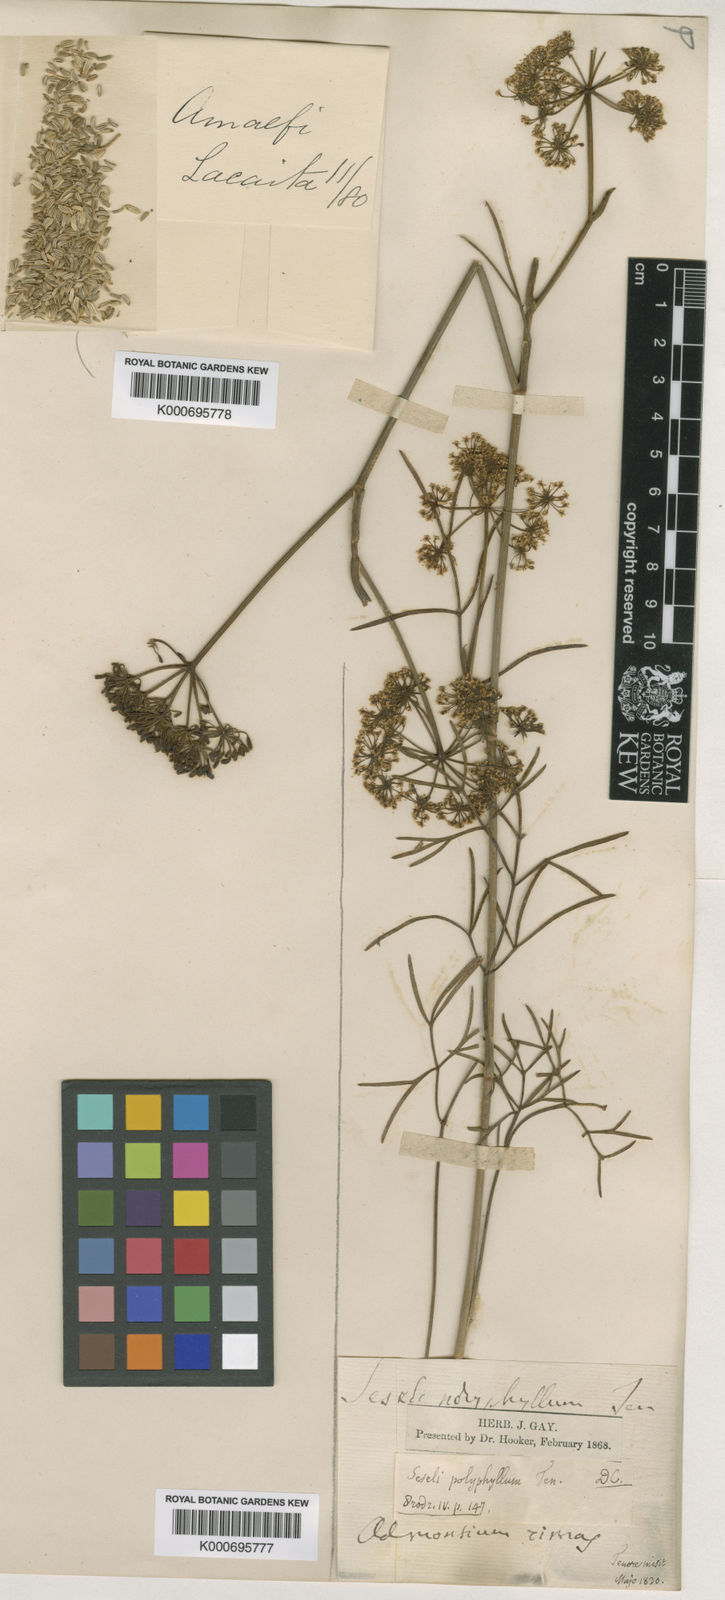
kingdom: Plantae
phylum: Tracheophyta
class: Magnoliopsida
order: Apiales
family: Apiaceae
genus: Seseli
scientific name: Seseli montanum
